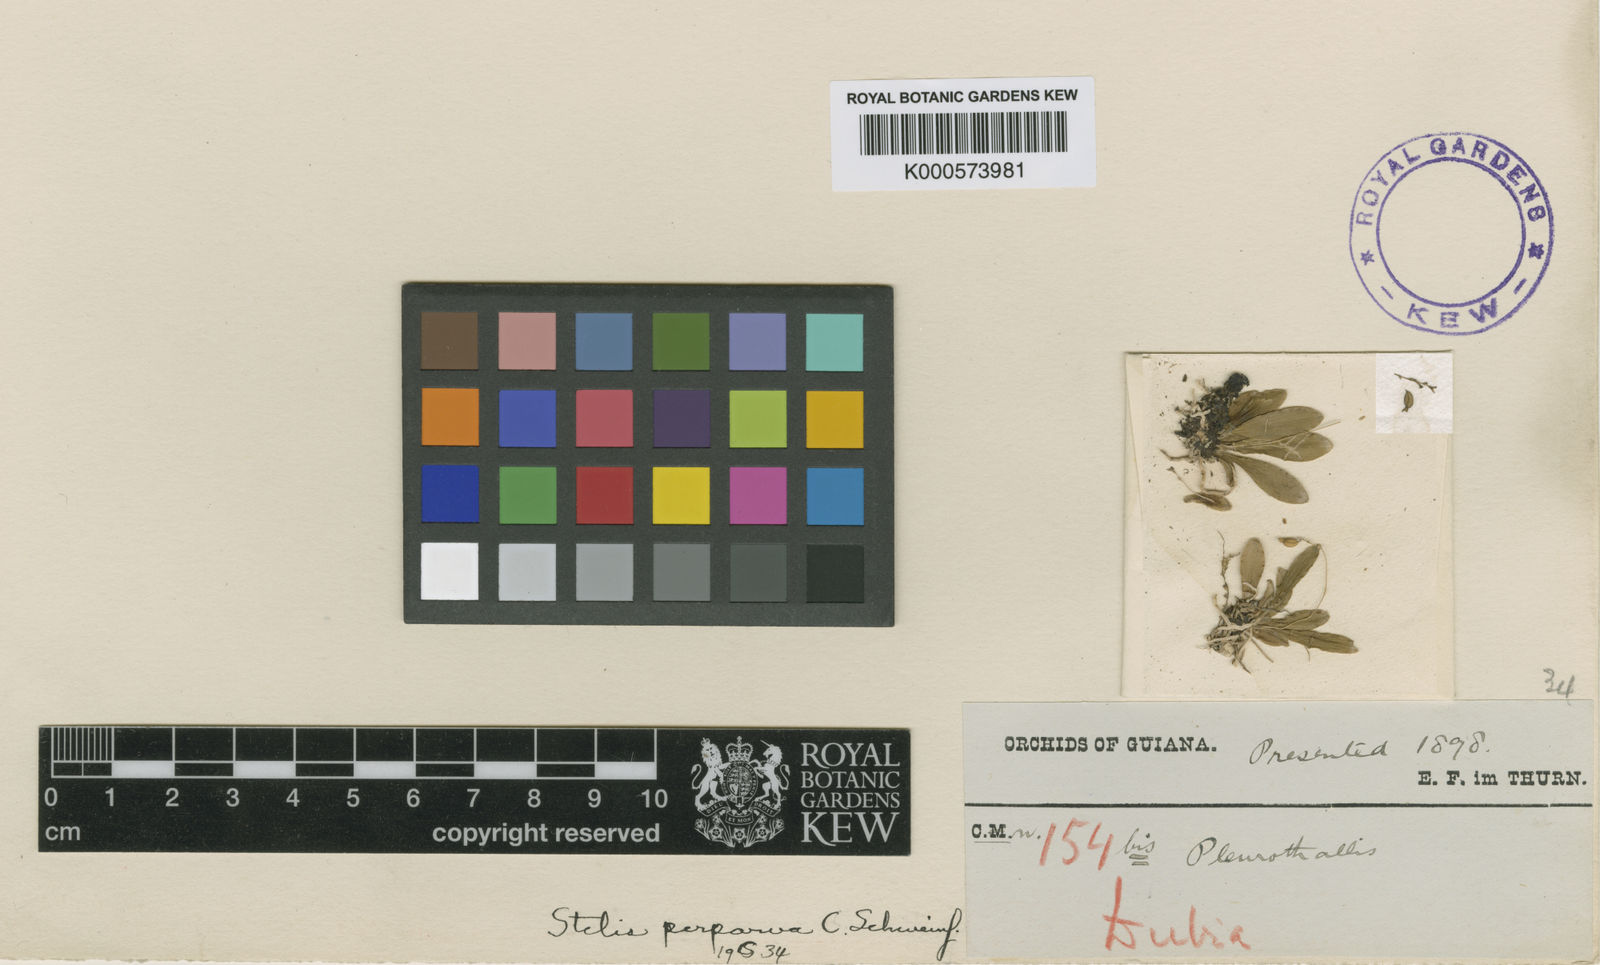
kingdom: Plantae
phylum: Tracheophyta
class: Liliopsida
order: Asparagales
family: Orchidaceae
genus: Stelis
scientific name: Stelis perparva
